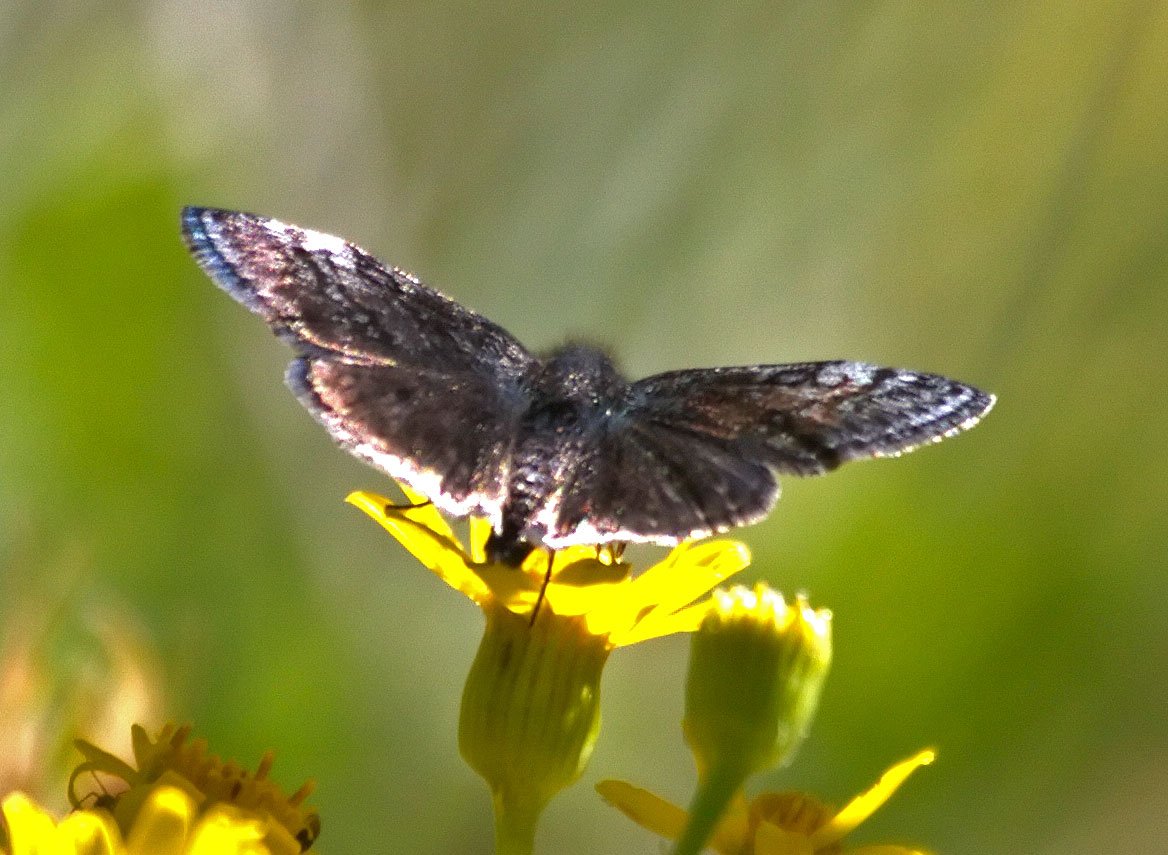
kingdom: Animalia
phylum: Arthropoda
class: Insecta
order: Lepidoptera
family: Hesperiidae
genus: Gesta
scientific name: Gesta
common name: Persius Duskywing
